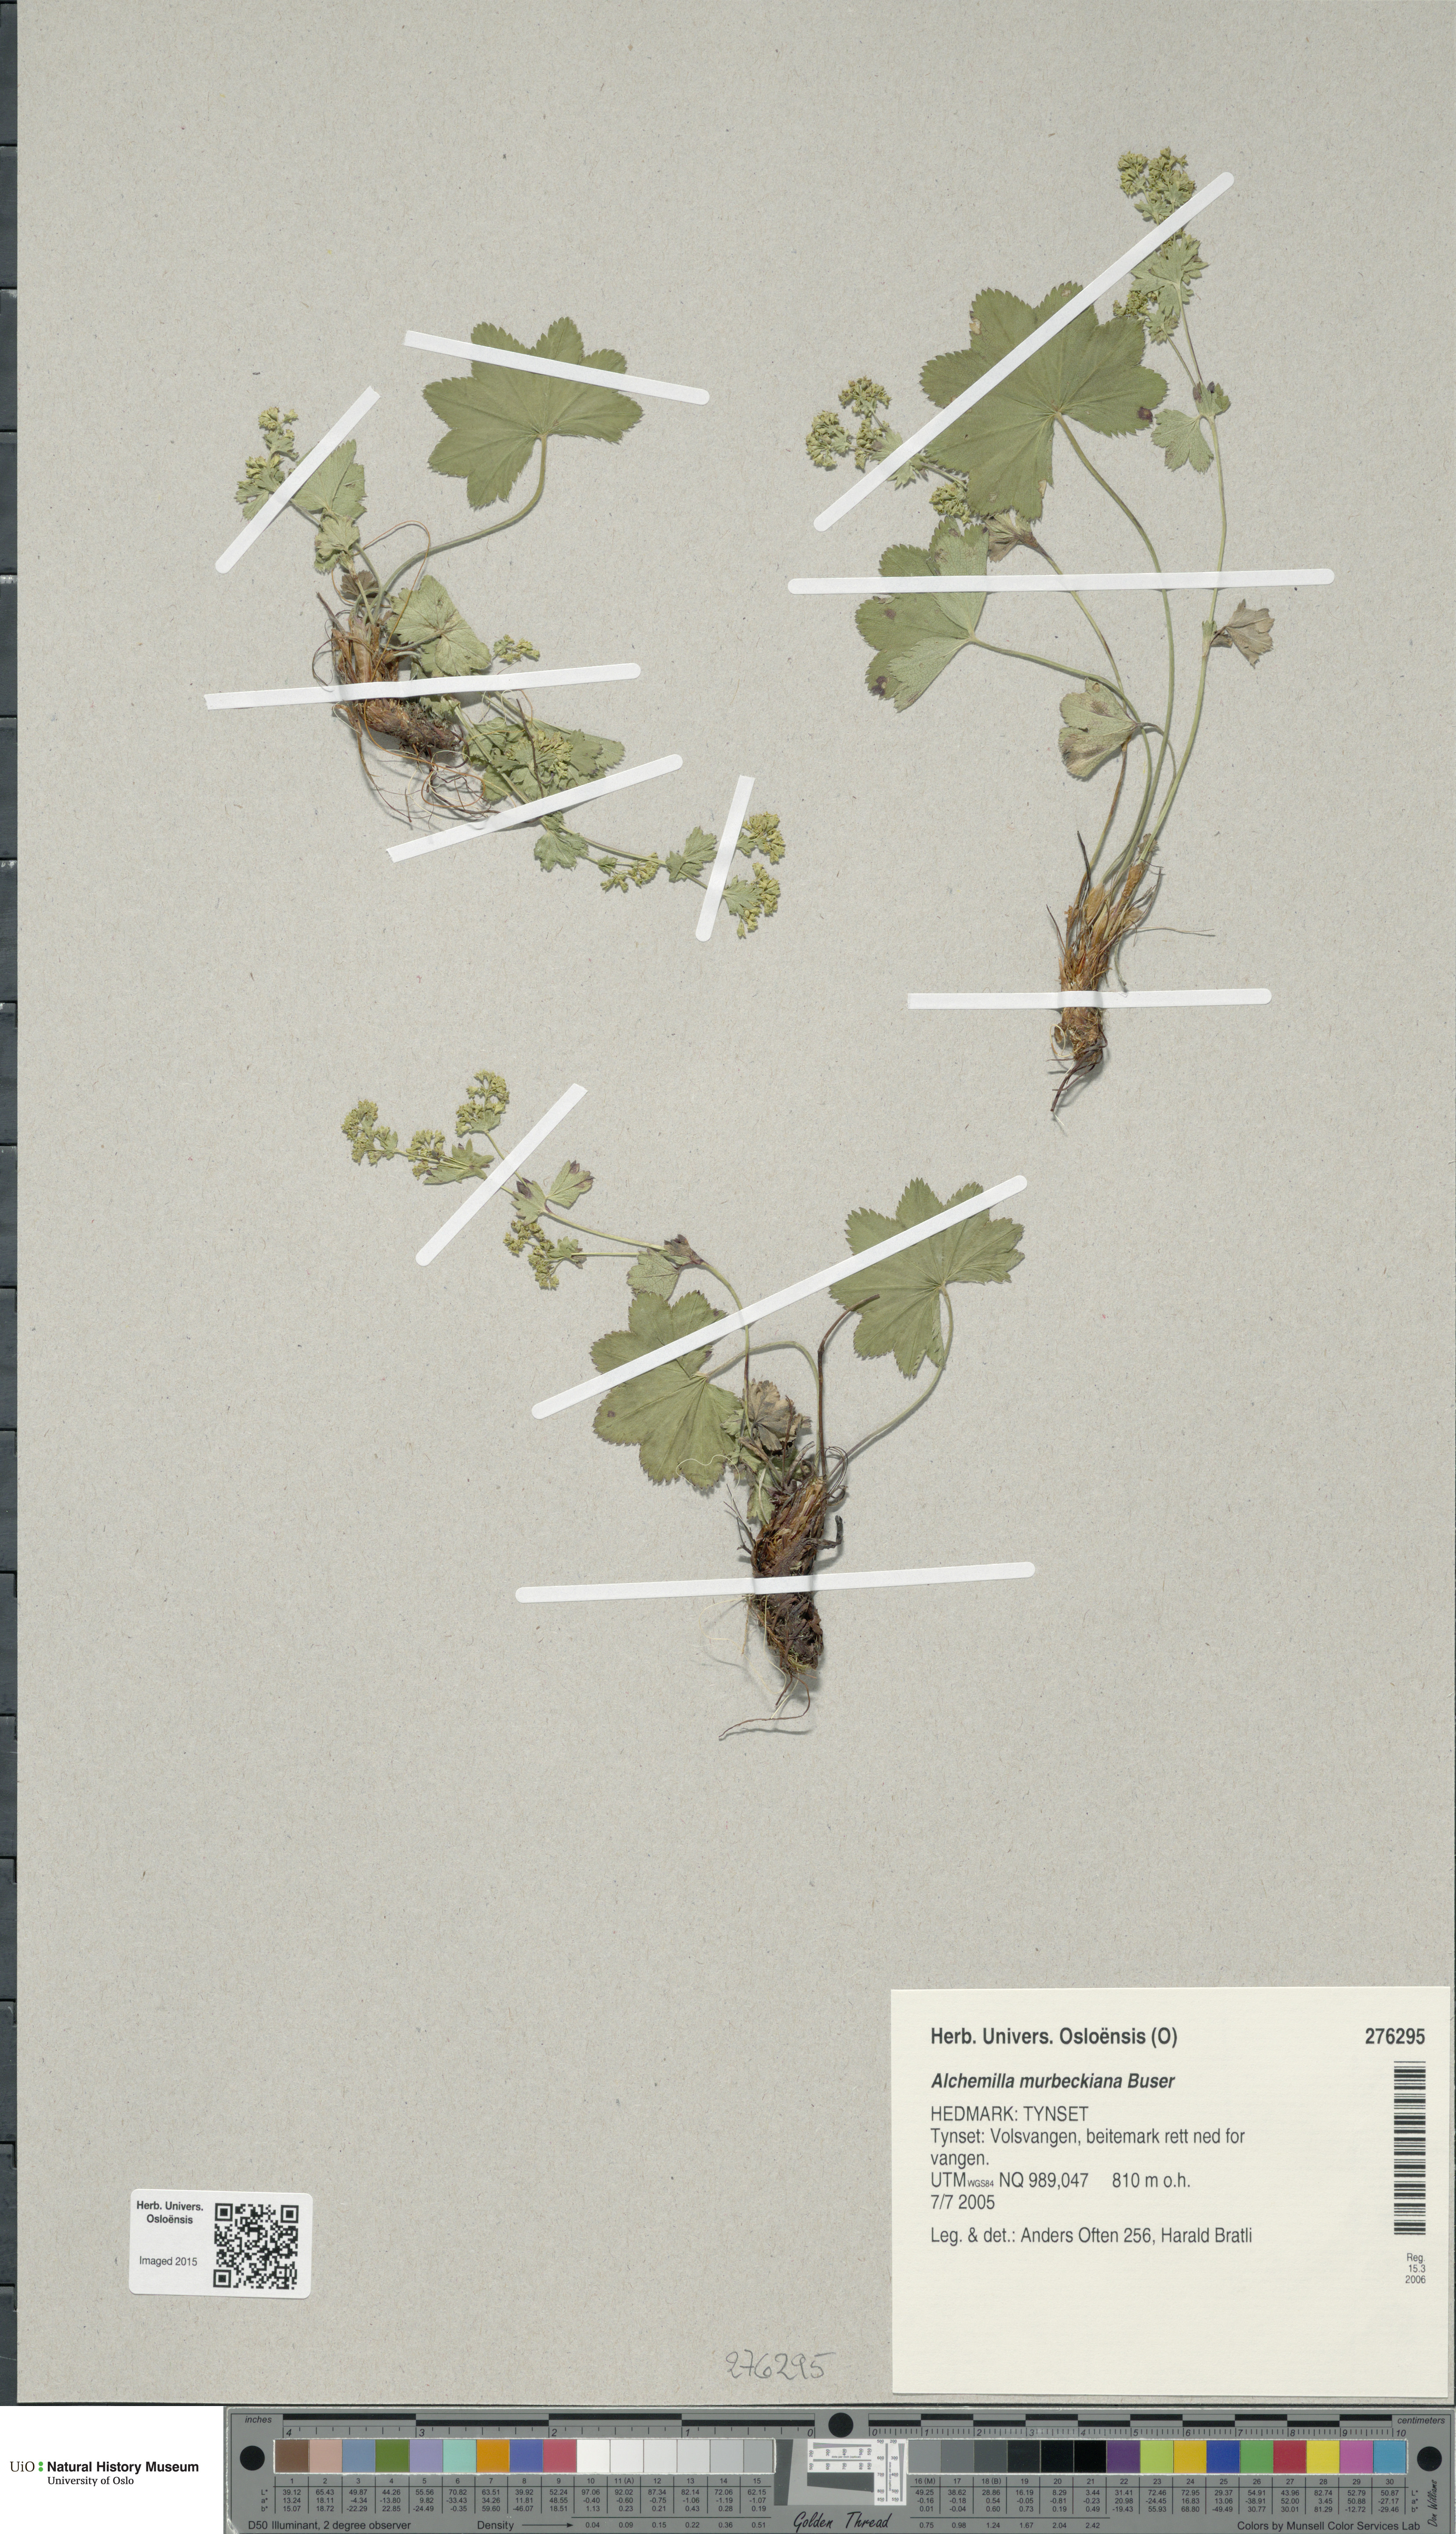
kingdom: Plantae
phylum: Tracheophyta
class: Magnoliopsida
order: Rosales
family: Rosaceae
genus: Alchemilla
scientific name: Alchemilla murbeckiana
